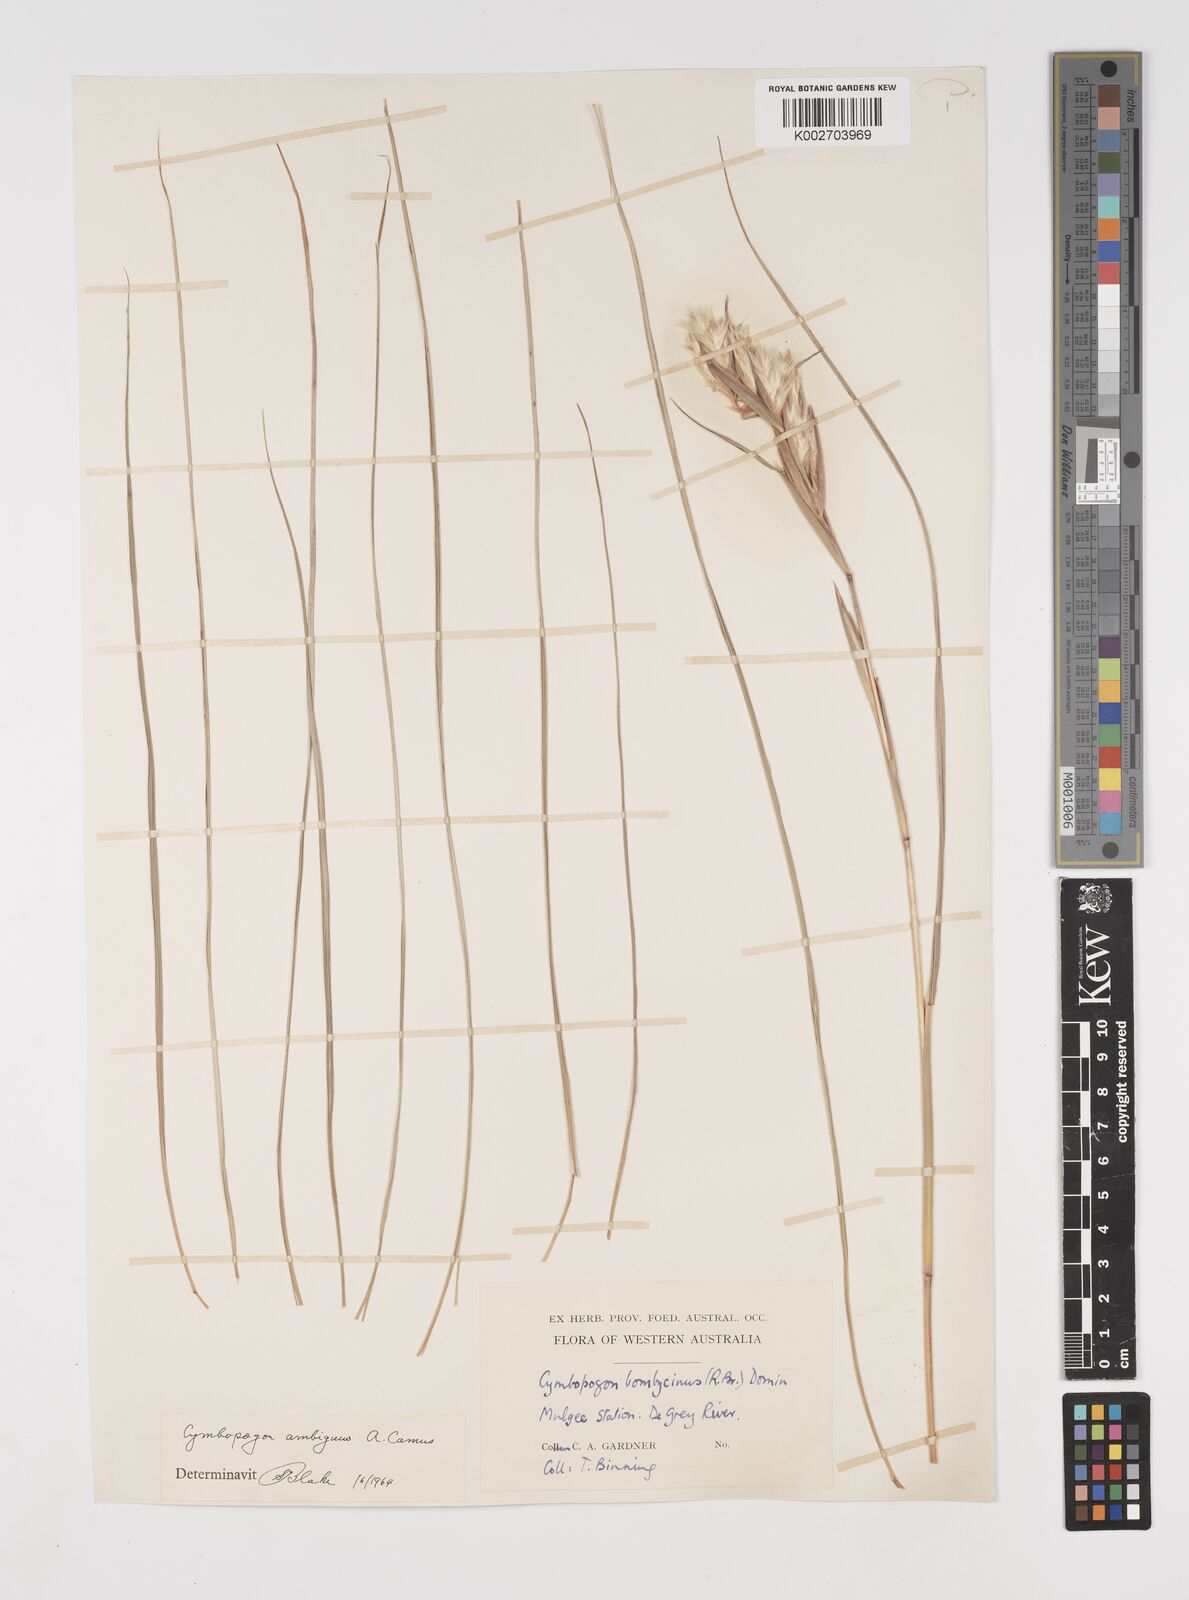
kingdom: Plantae
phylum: Tracheophyta
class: Liliopsida
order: Poales
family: Poaceae
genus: Cymbopogon
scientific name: Cymbopogon ambiguus
